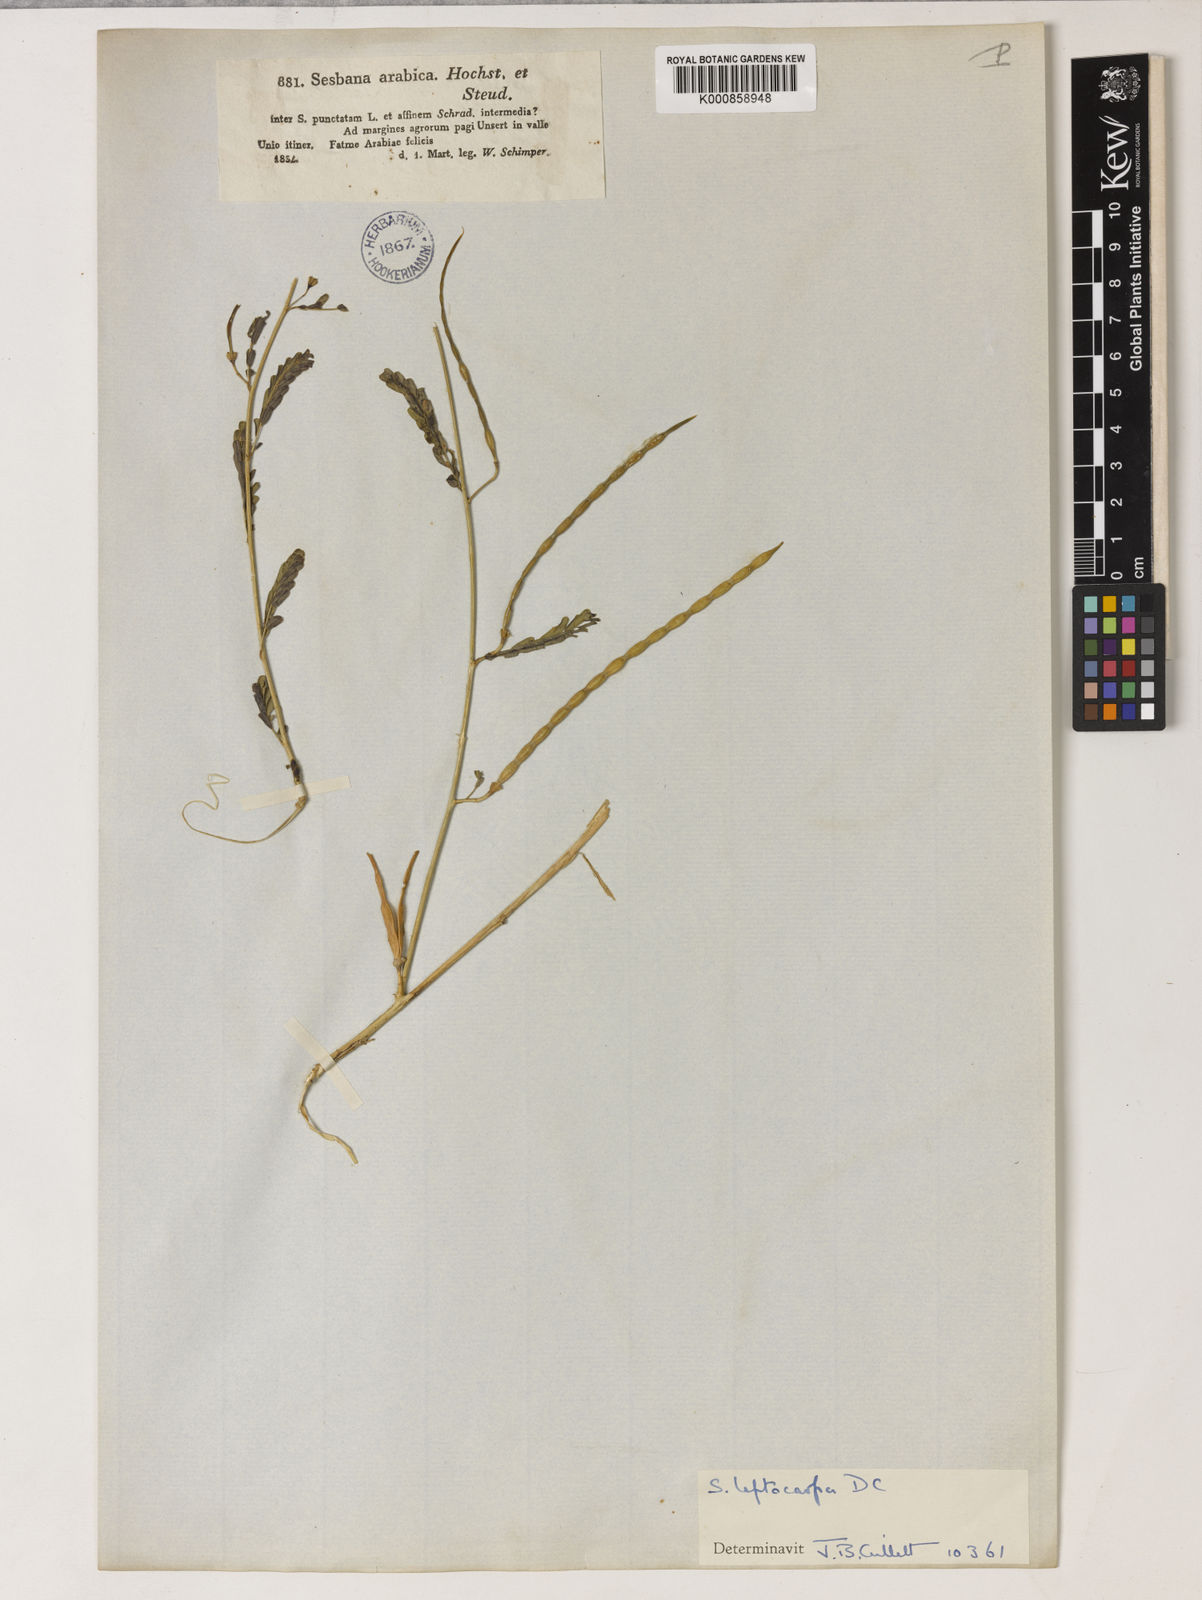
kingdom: Plantae
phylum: Tracheophyta
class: Magnoliopsida
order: Fabales
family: Fabaceae
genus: Sesbania
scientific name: Sesbania leptocarpa
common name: Riverhemp
